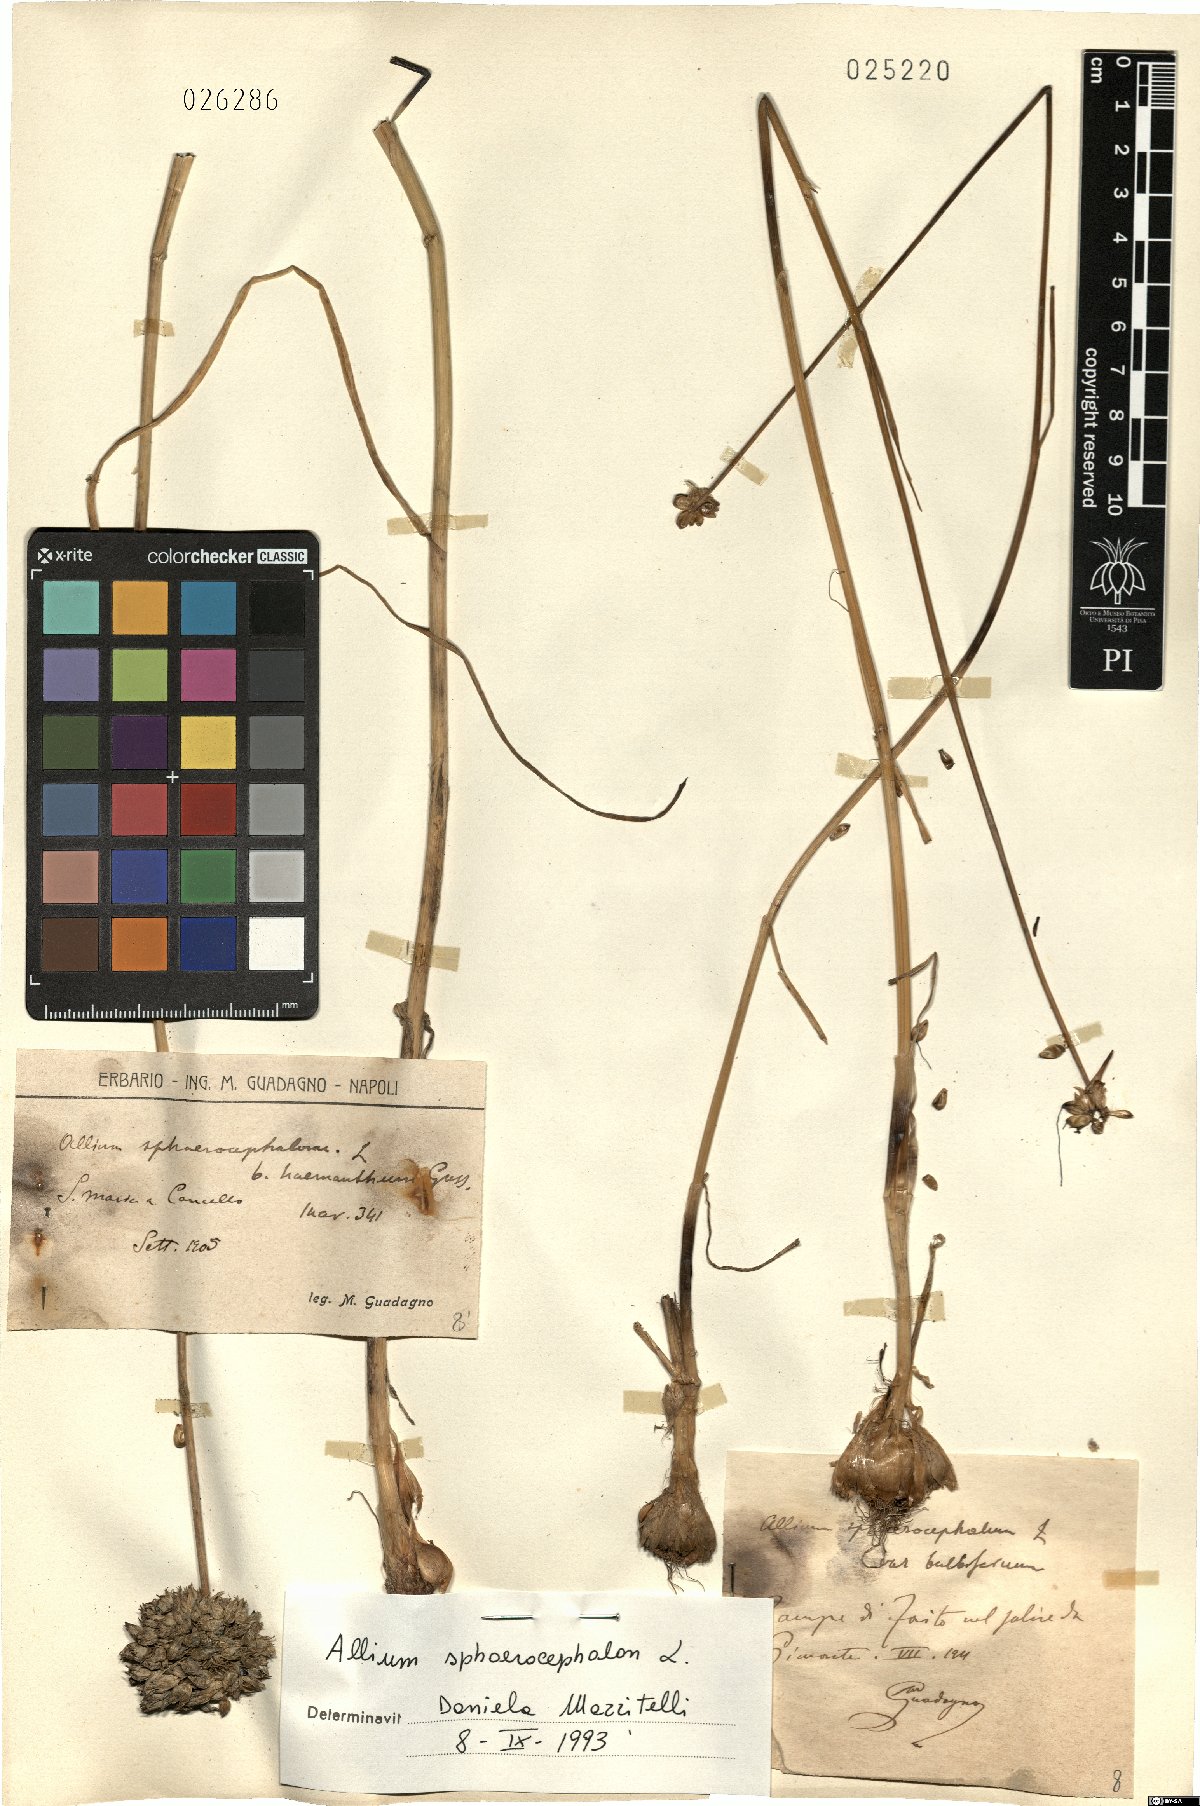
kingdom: Plantae
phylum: Tracheophyta
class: Liliopsida
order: Asparagales
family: Amaryllidaceae
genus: Allium
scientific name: Allium sphaerocephalon
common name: Round-headed leek
